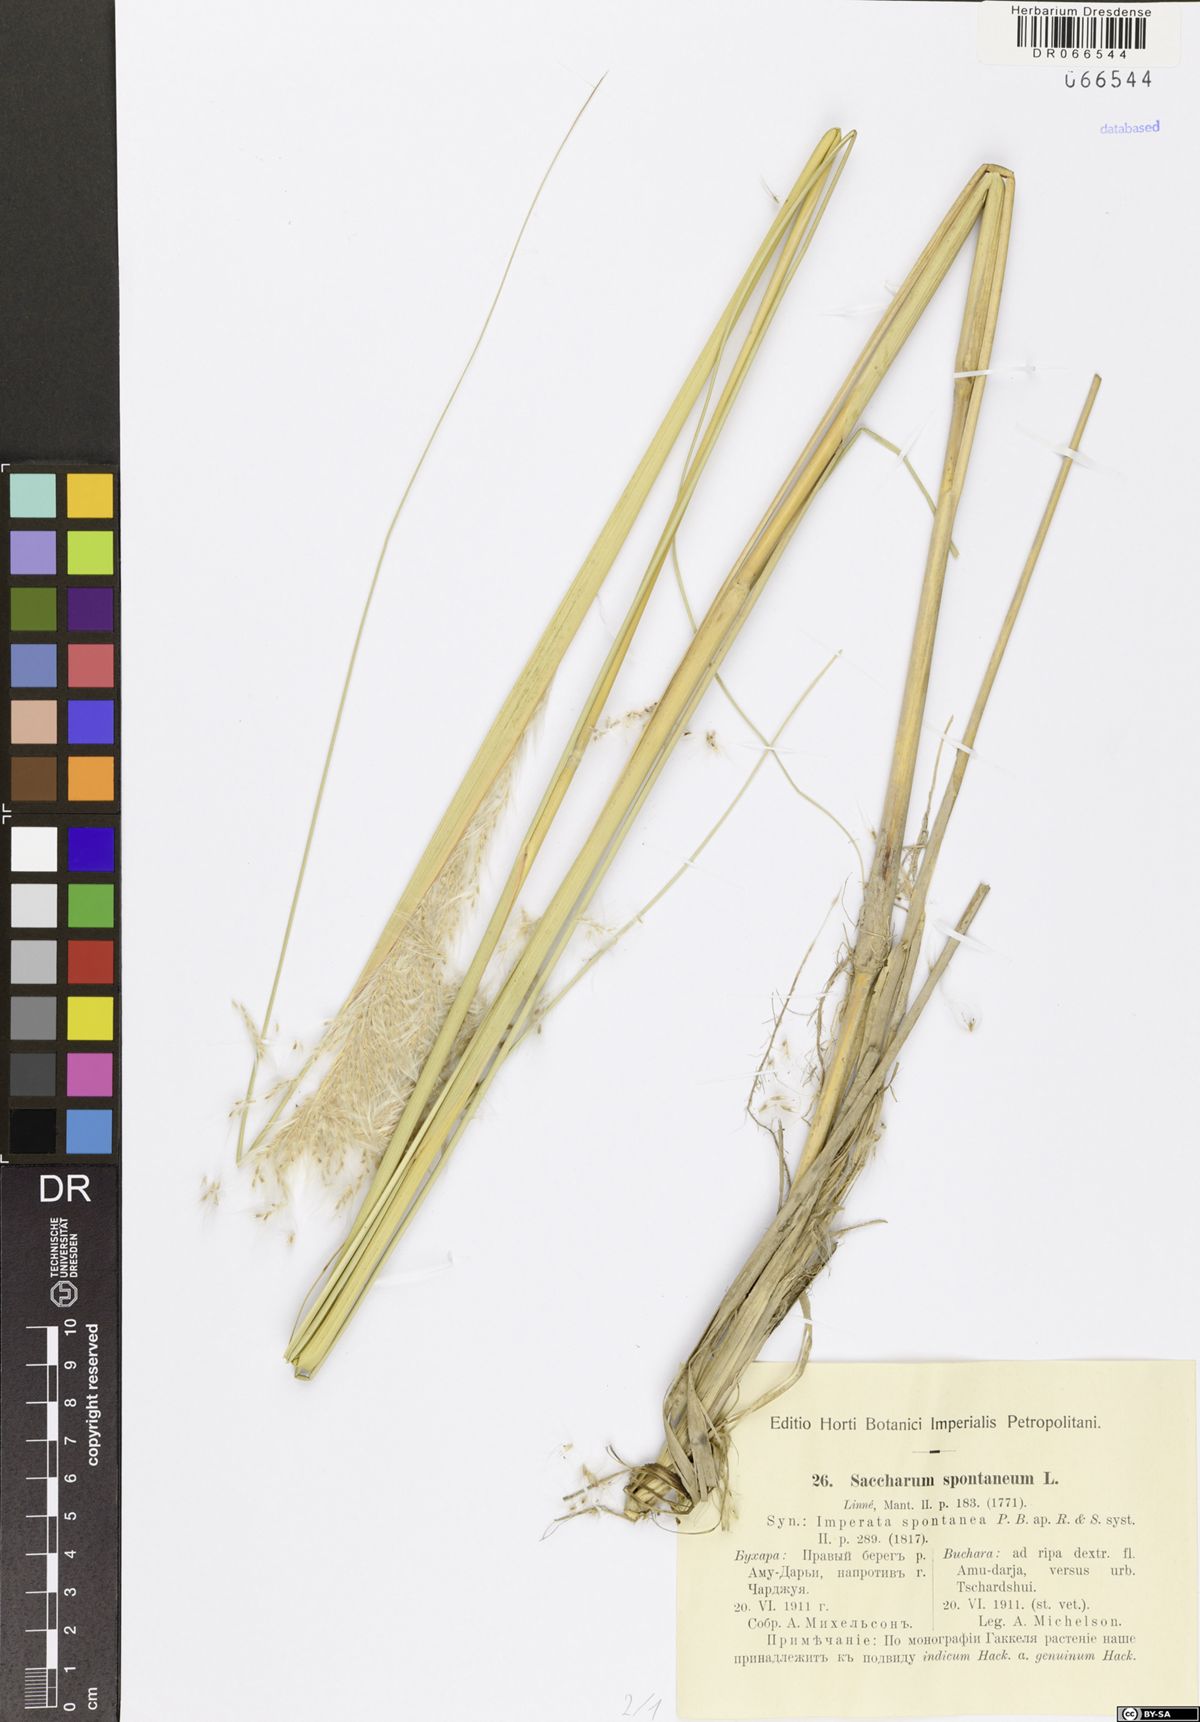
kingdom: Plantae
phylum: Tracheophyta
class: Liliopsida
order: Poales
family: Poaceae
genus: Saccharum
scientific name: Saccharum spontaneum
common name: Wild sugarcane
